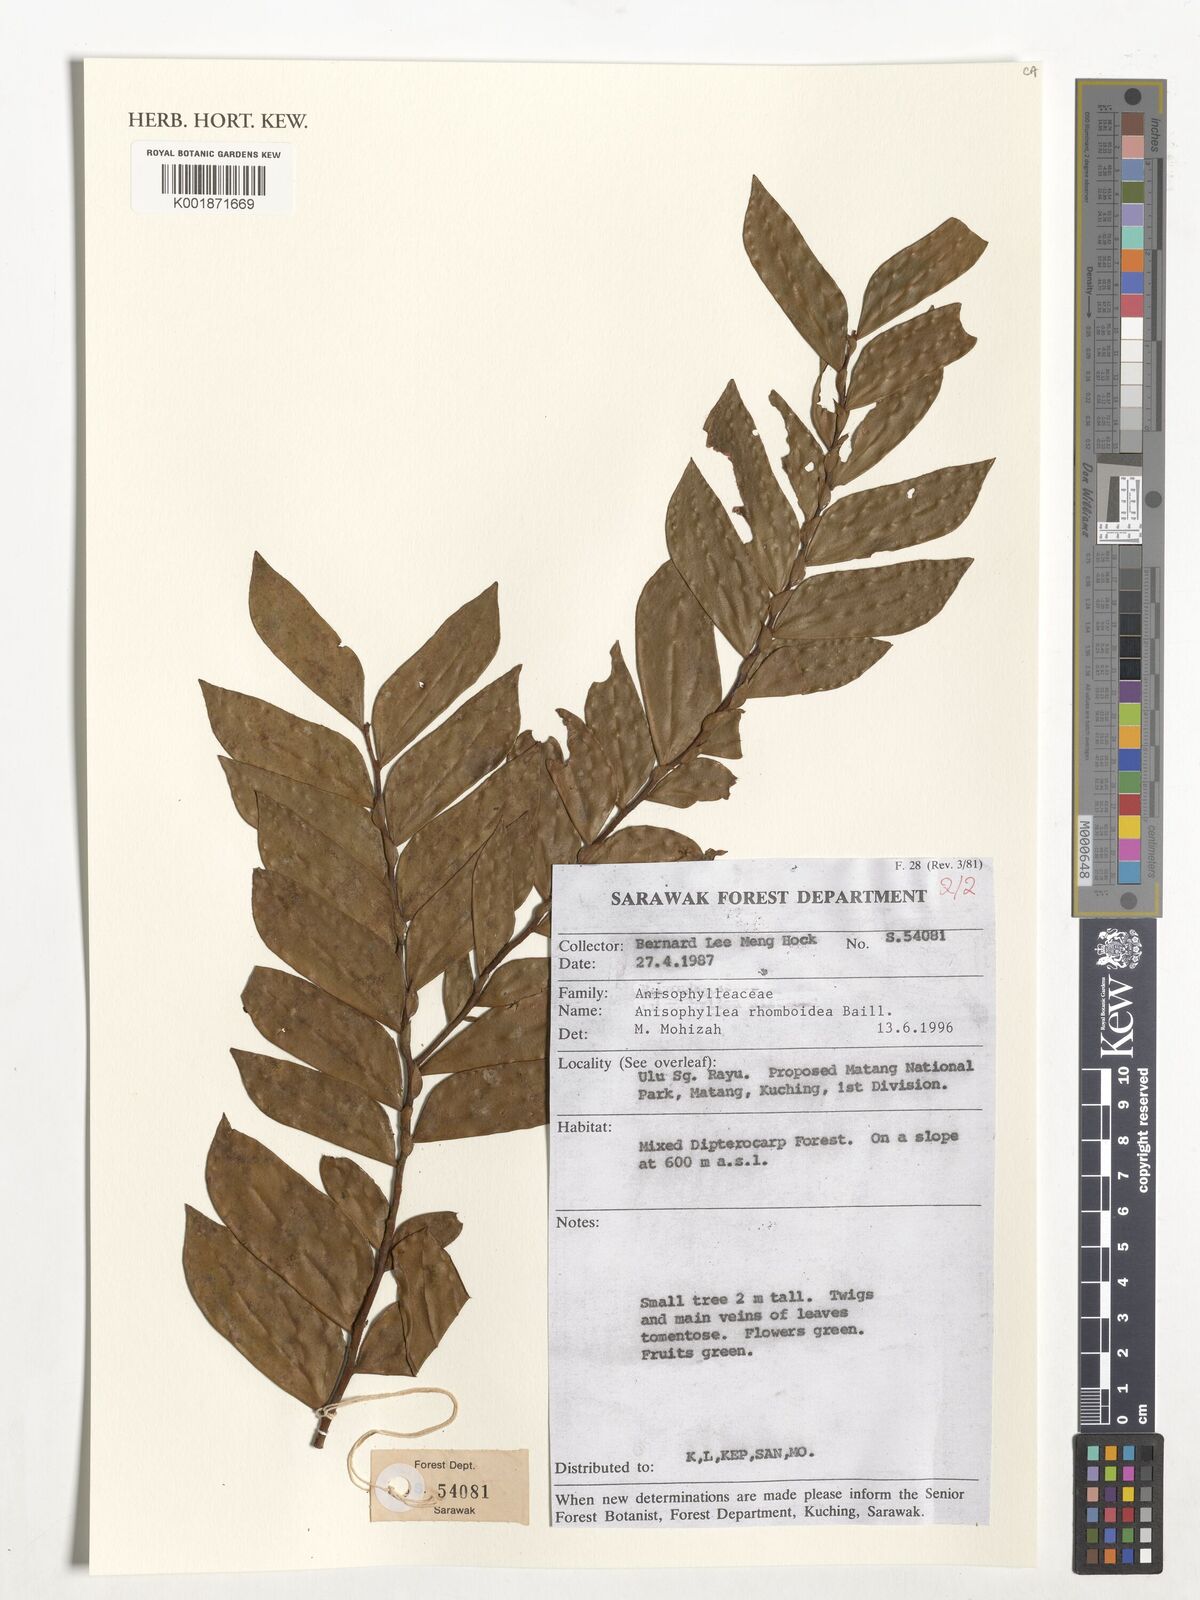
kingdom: Plantae
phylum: Tracheophyta
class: Magnoliopsida
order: Cucurbitales
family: Anisophylleaceae
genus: Anisophyllea
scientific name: Anisophyllea disticha
